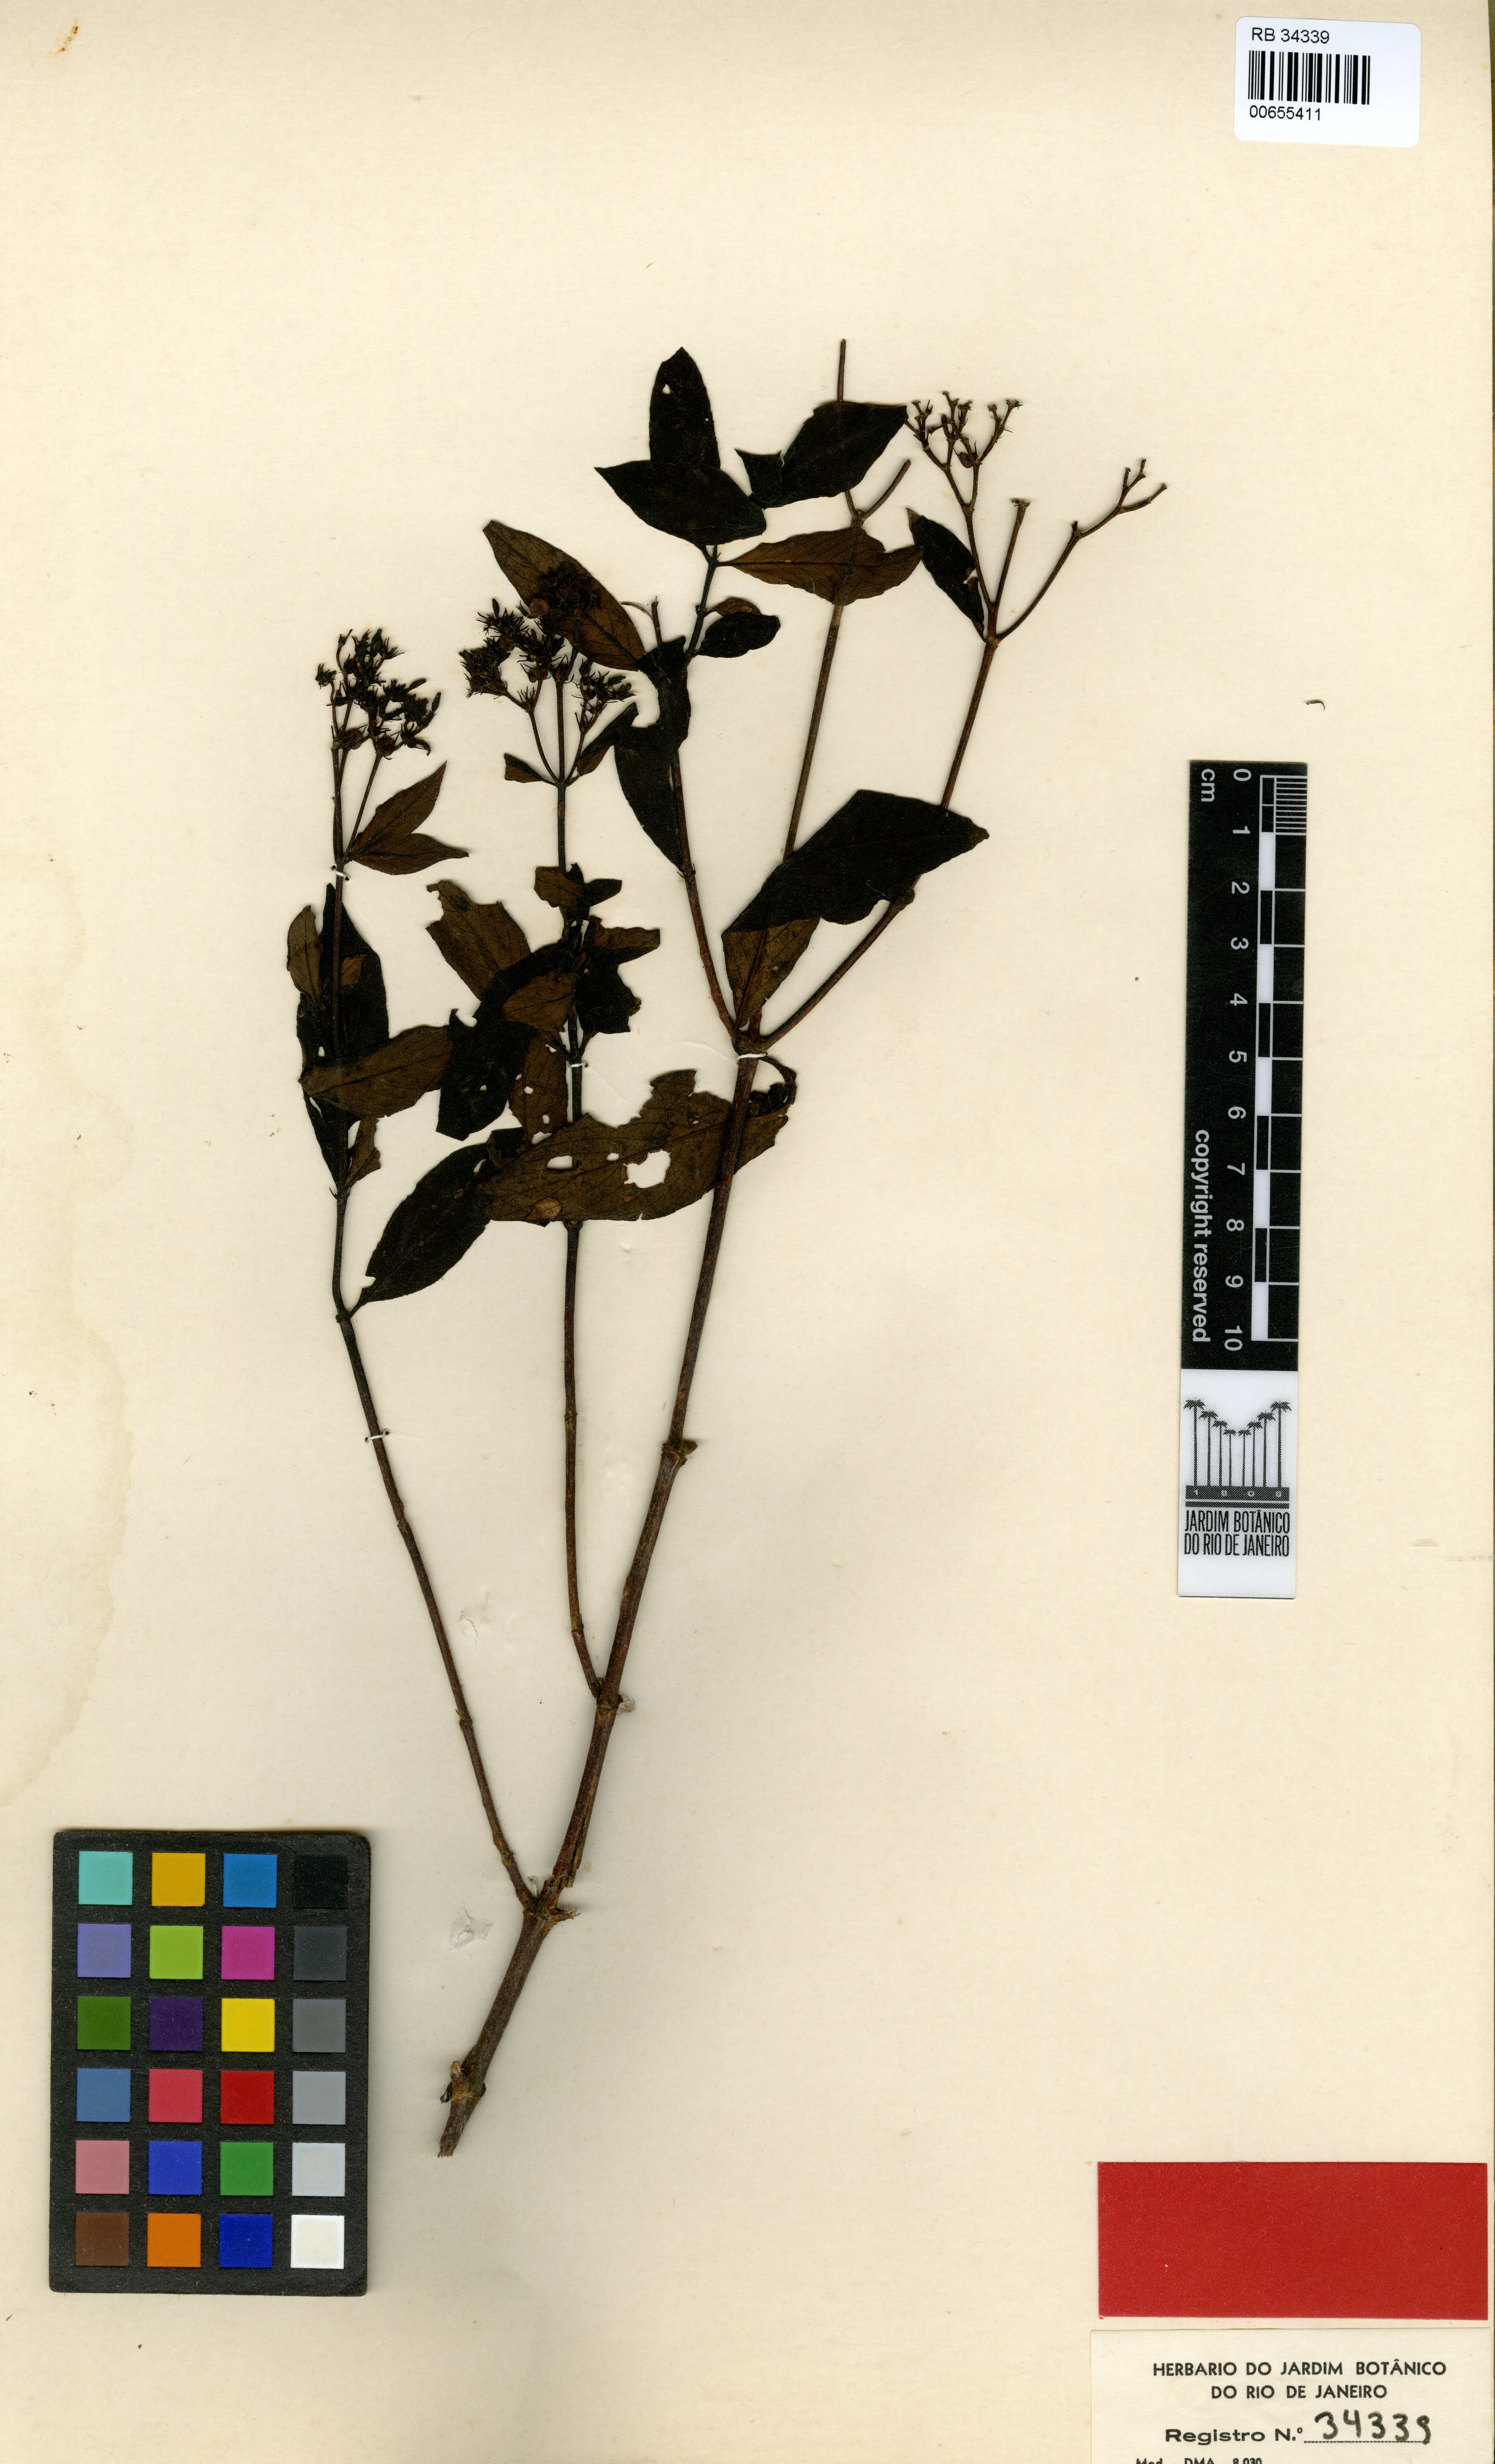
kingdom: Plantae
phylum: Tracheophyta
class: Magnoliopsida
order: Gentianales
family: Rubiaceae
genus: Bradea
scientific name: Bradea kuhlmanni
